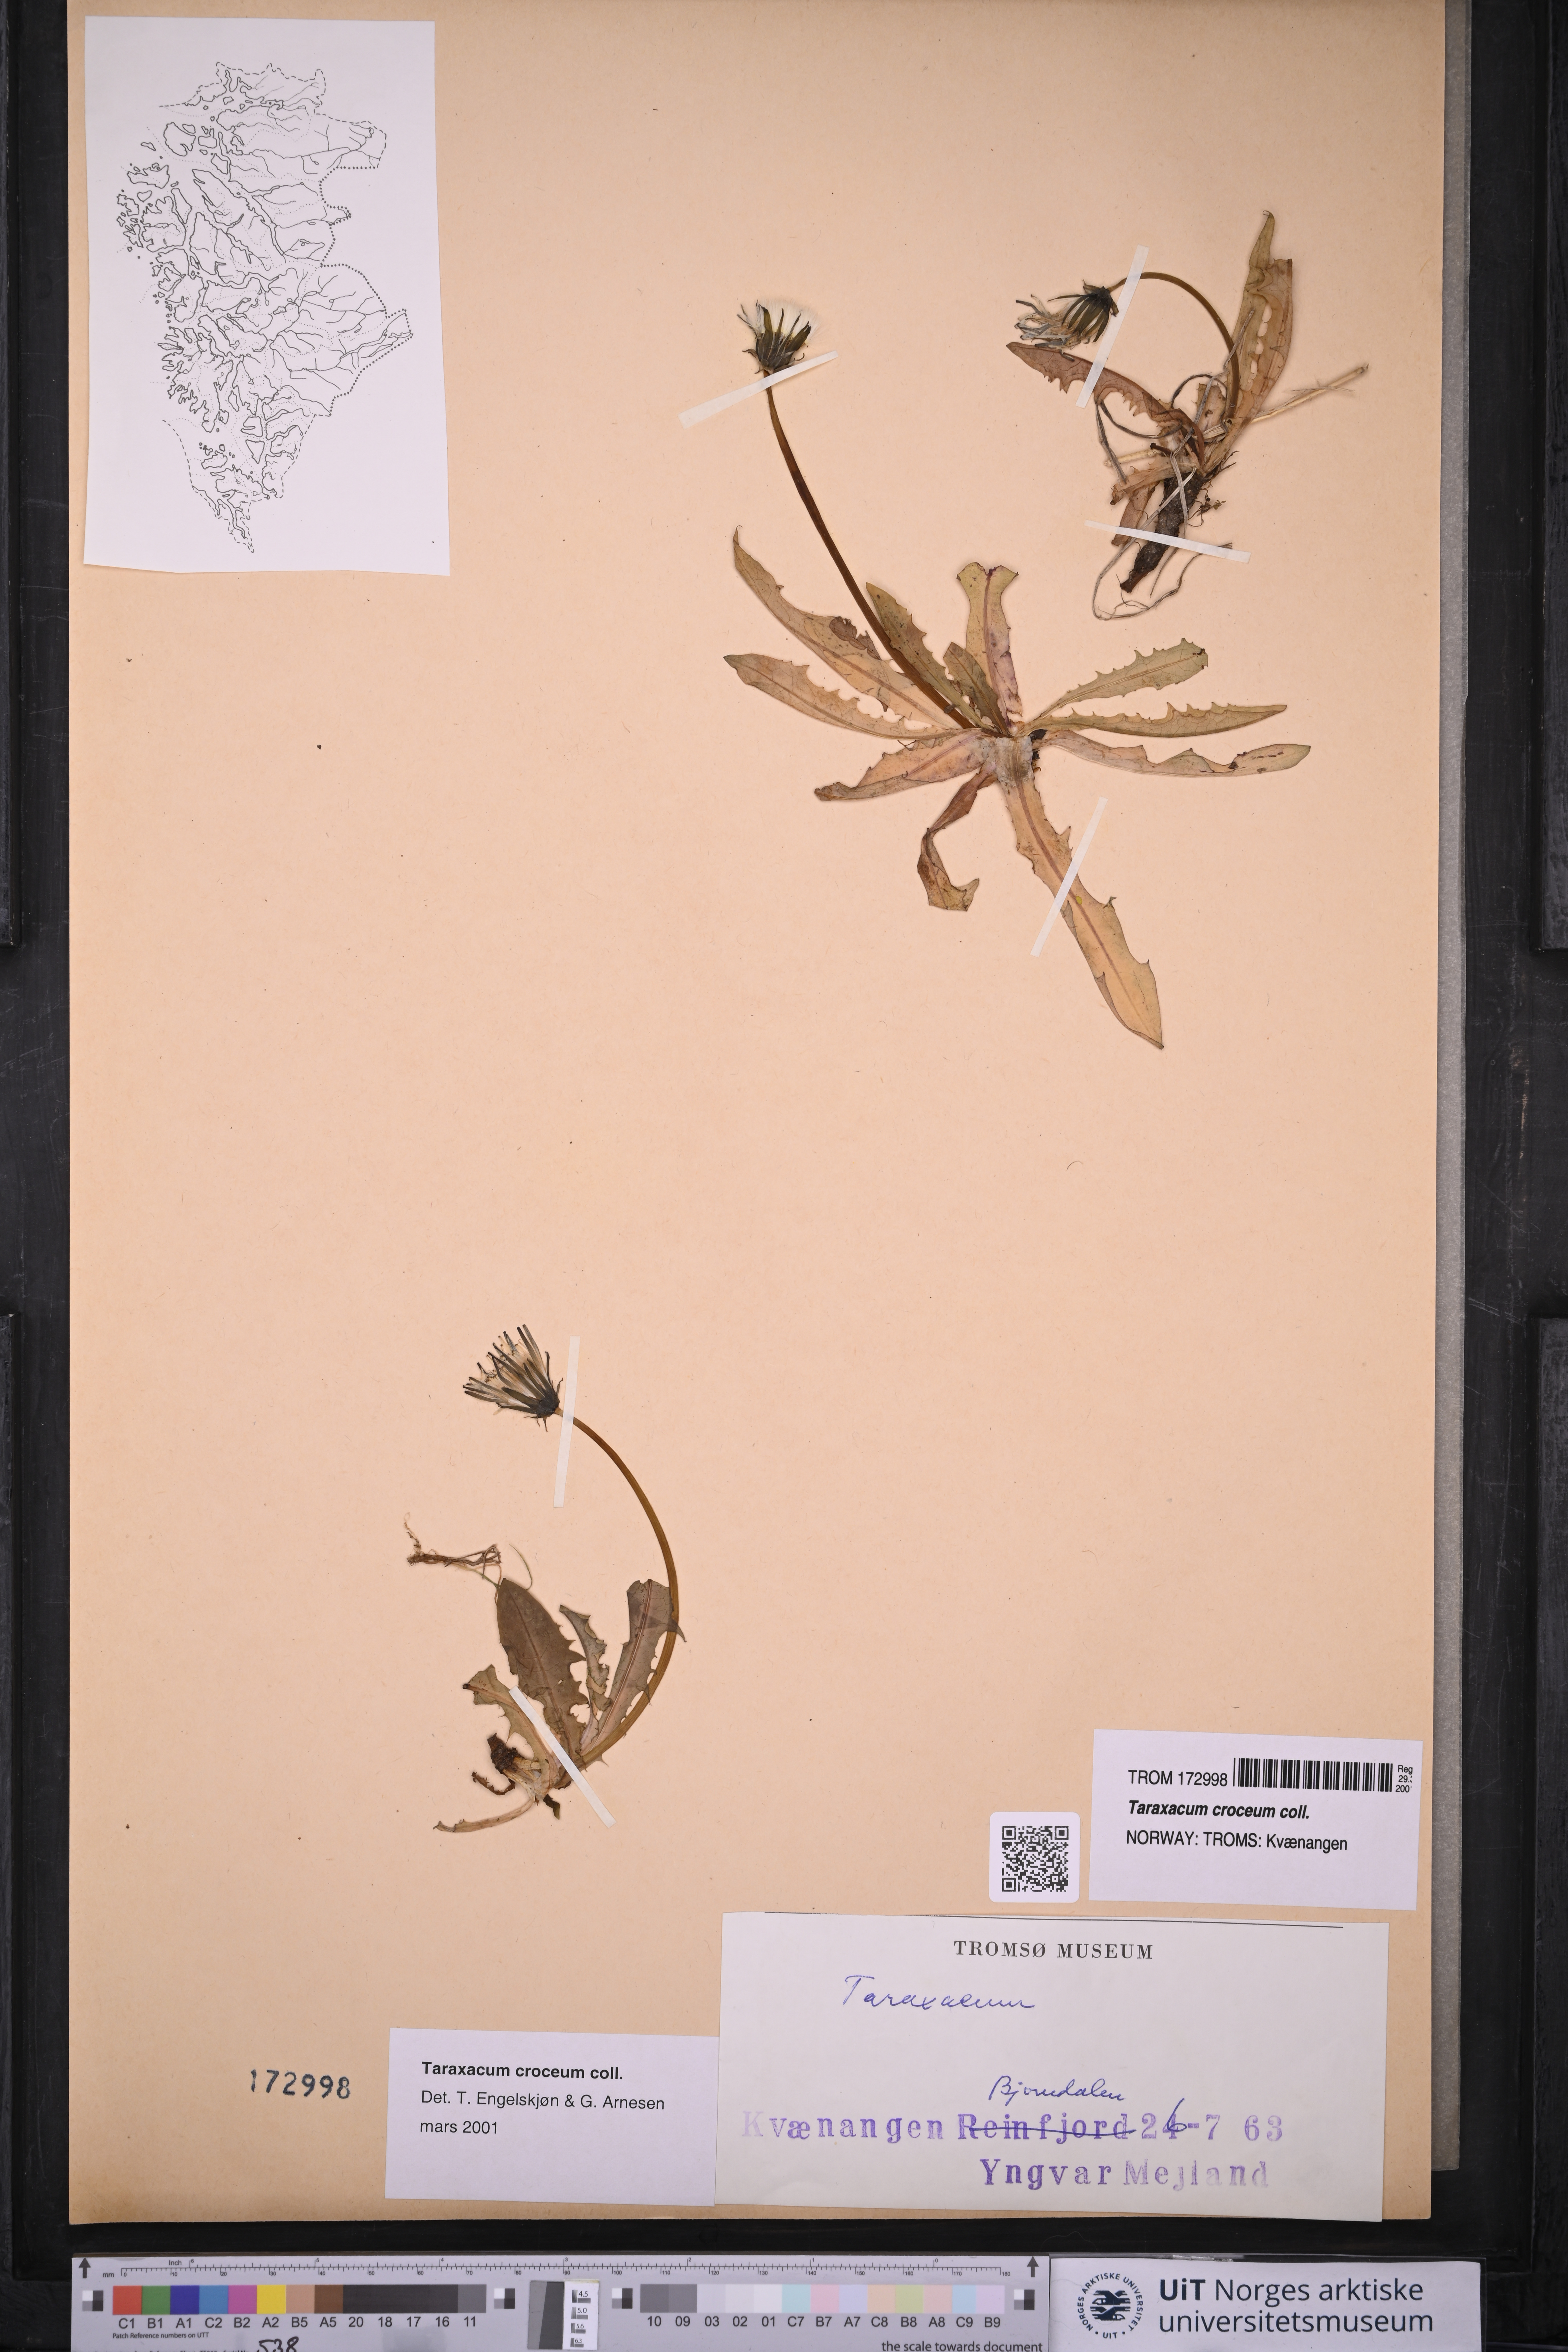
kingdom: Plantae
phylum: Tracheophyta
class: Magnoliopsida
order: Asterales
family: Asteraceae
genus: Taraxacum
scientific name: Taraxacum croceum
